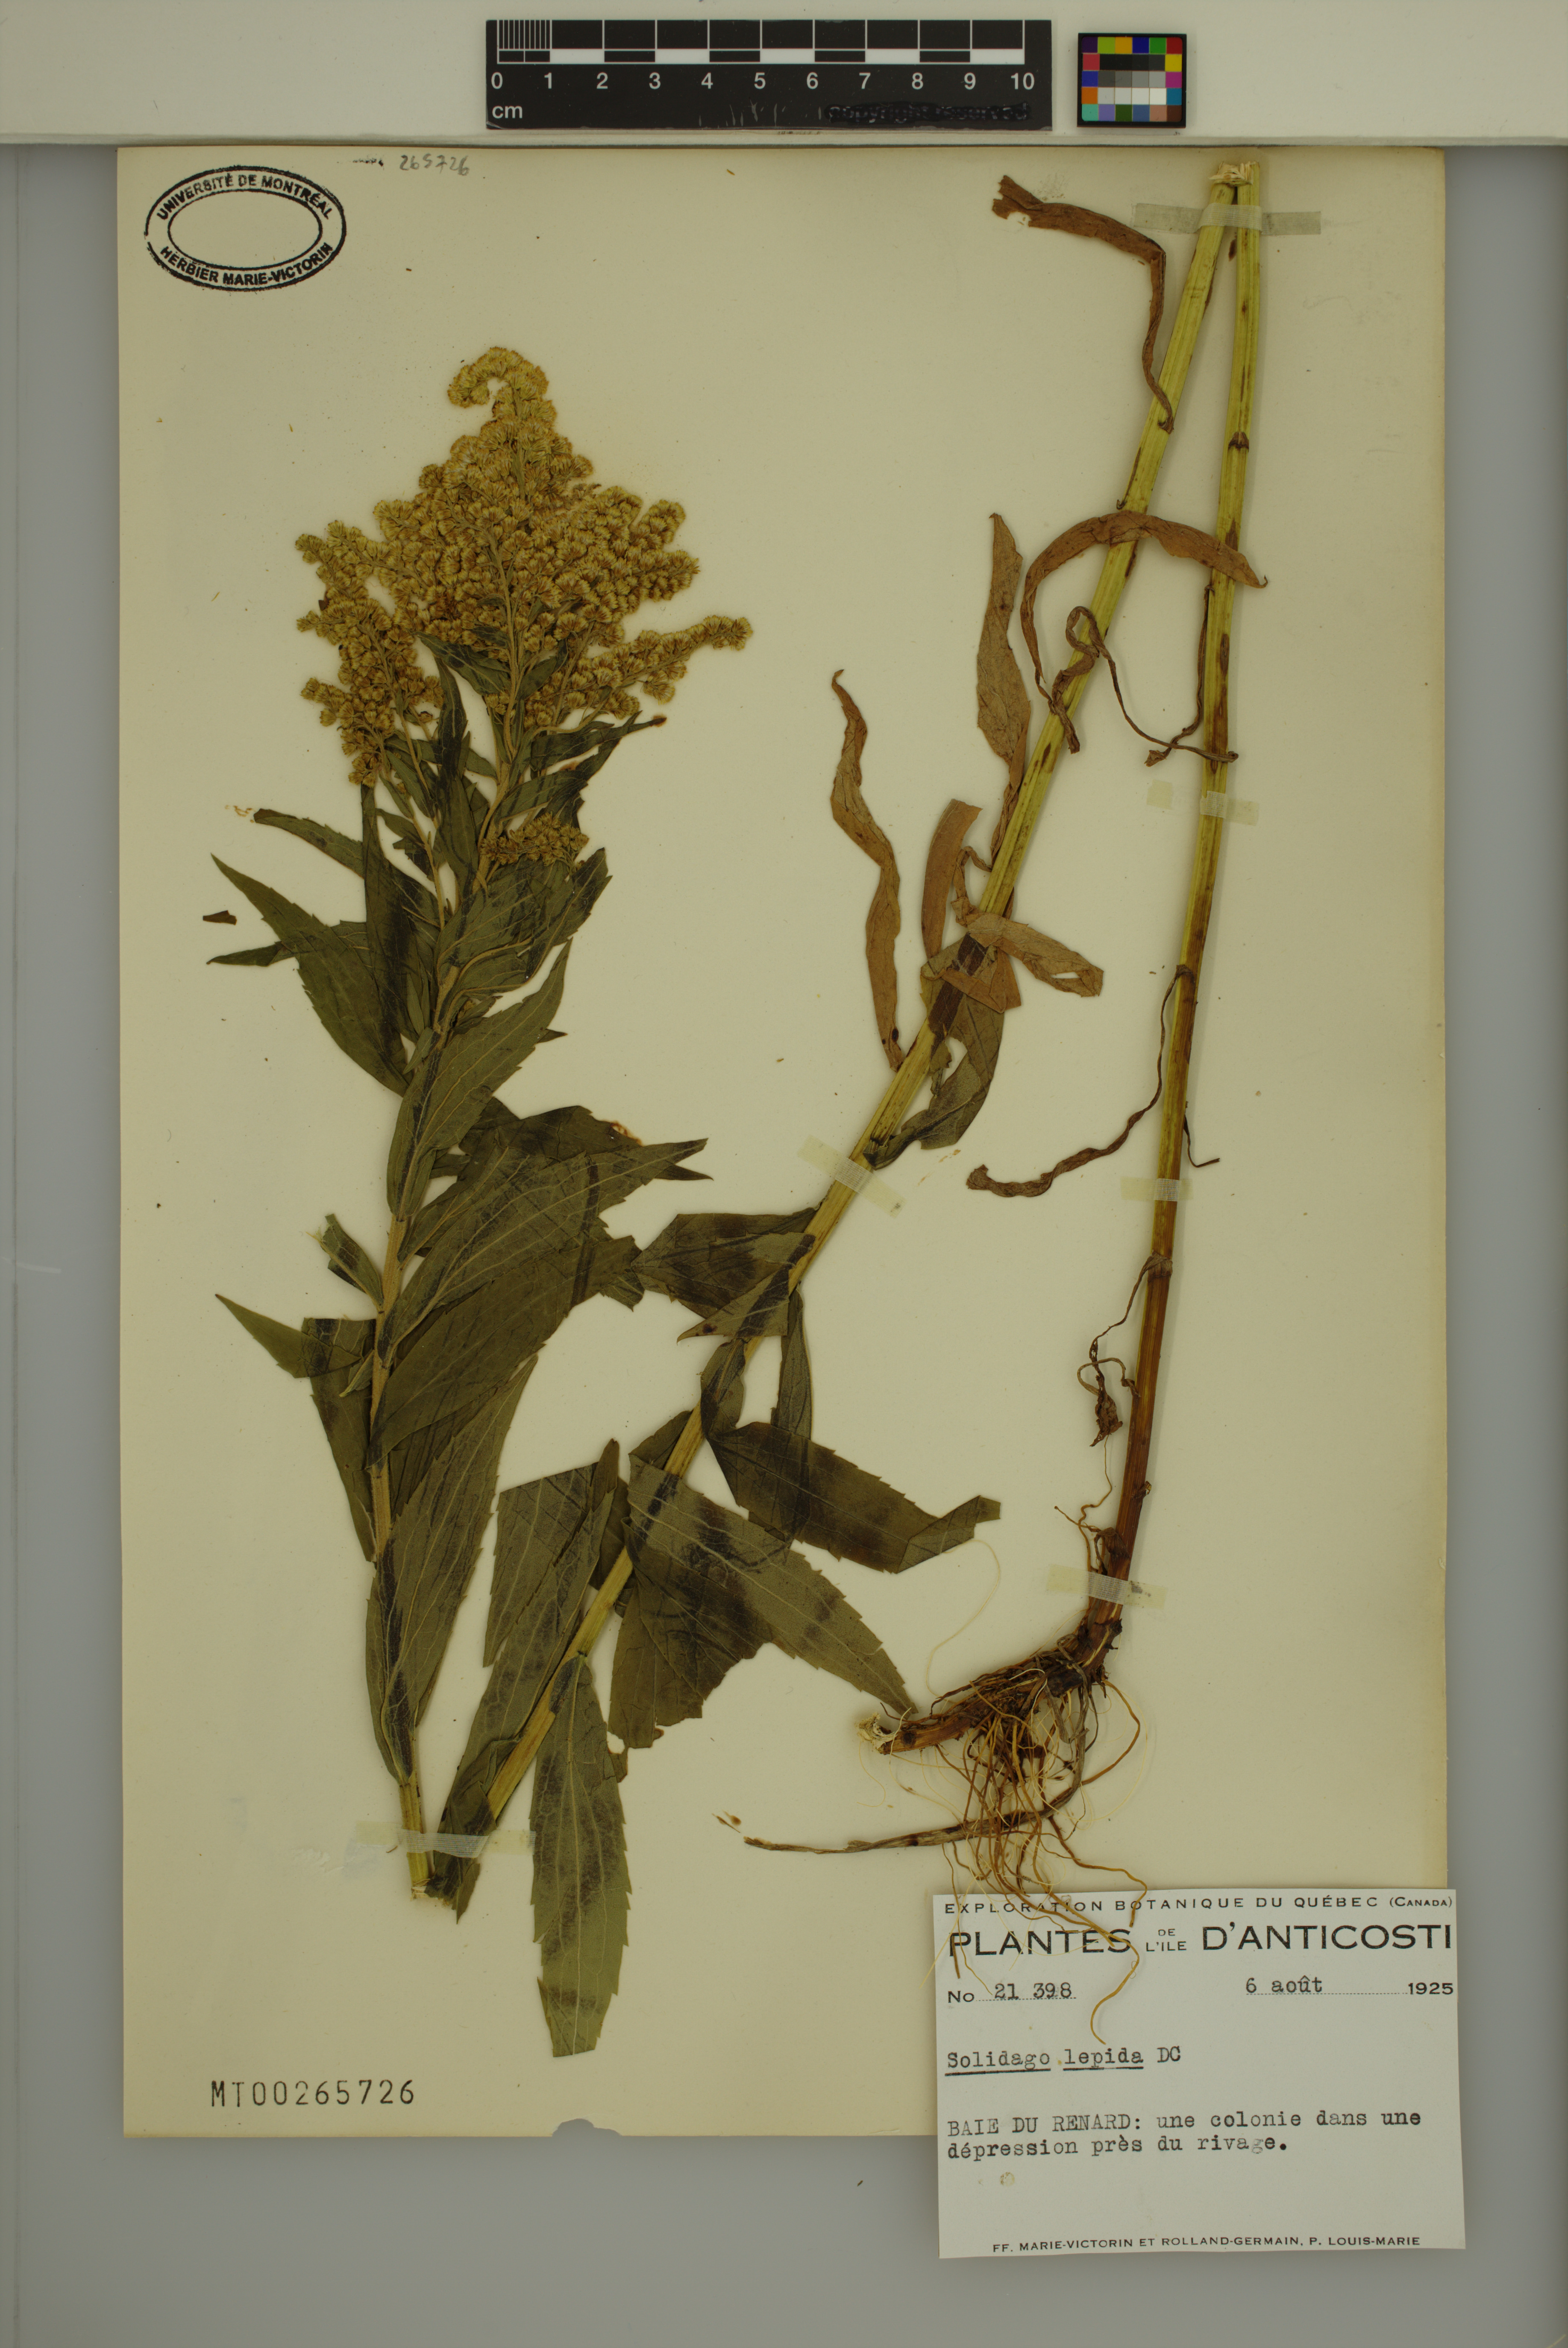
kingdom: Plantae
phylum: Tracheophyta
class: Magnoliopsida
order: Asterales
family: Asteraceae
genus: Solidago
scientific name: Solidago fallax
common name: Big-toothed canada goldenrod
